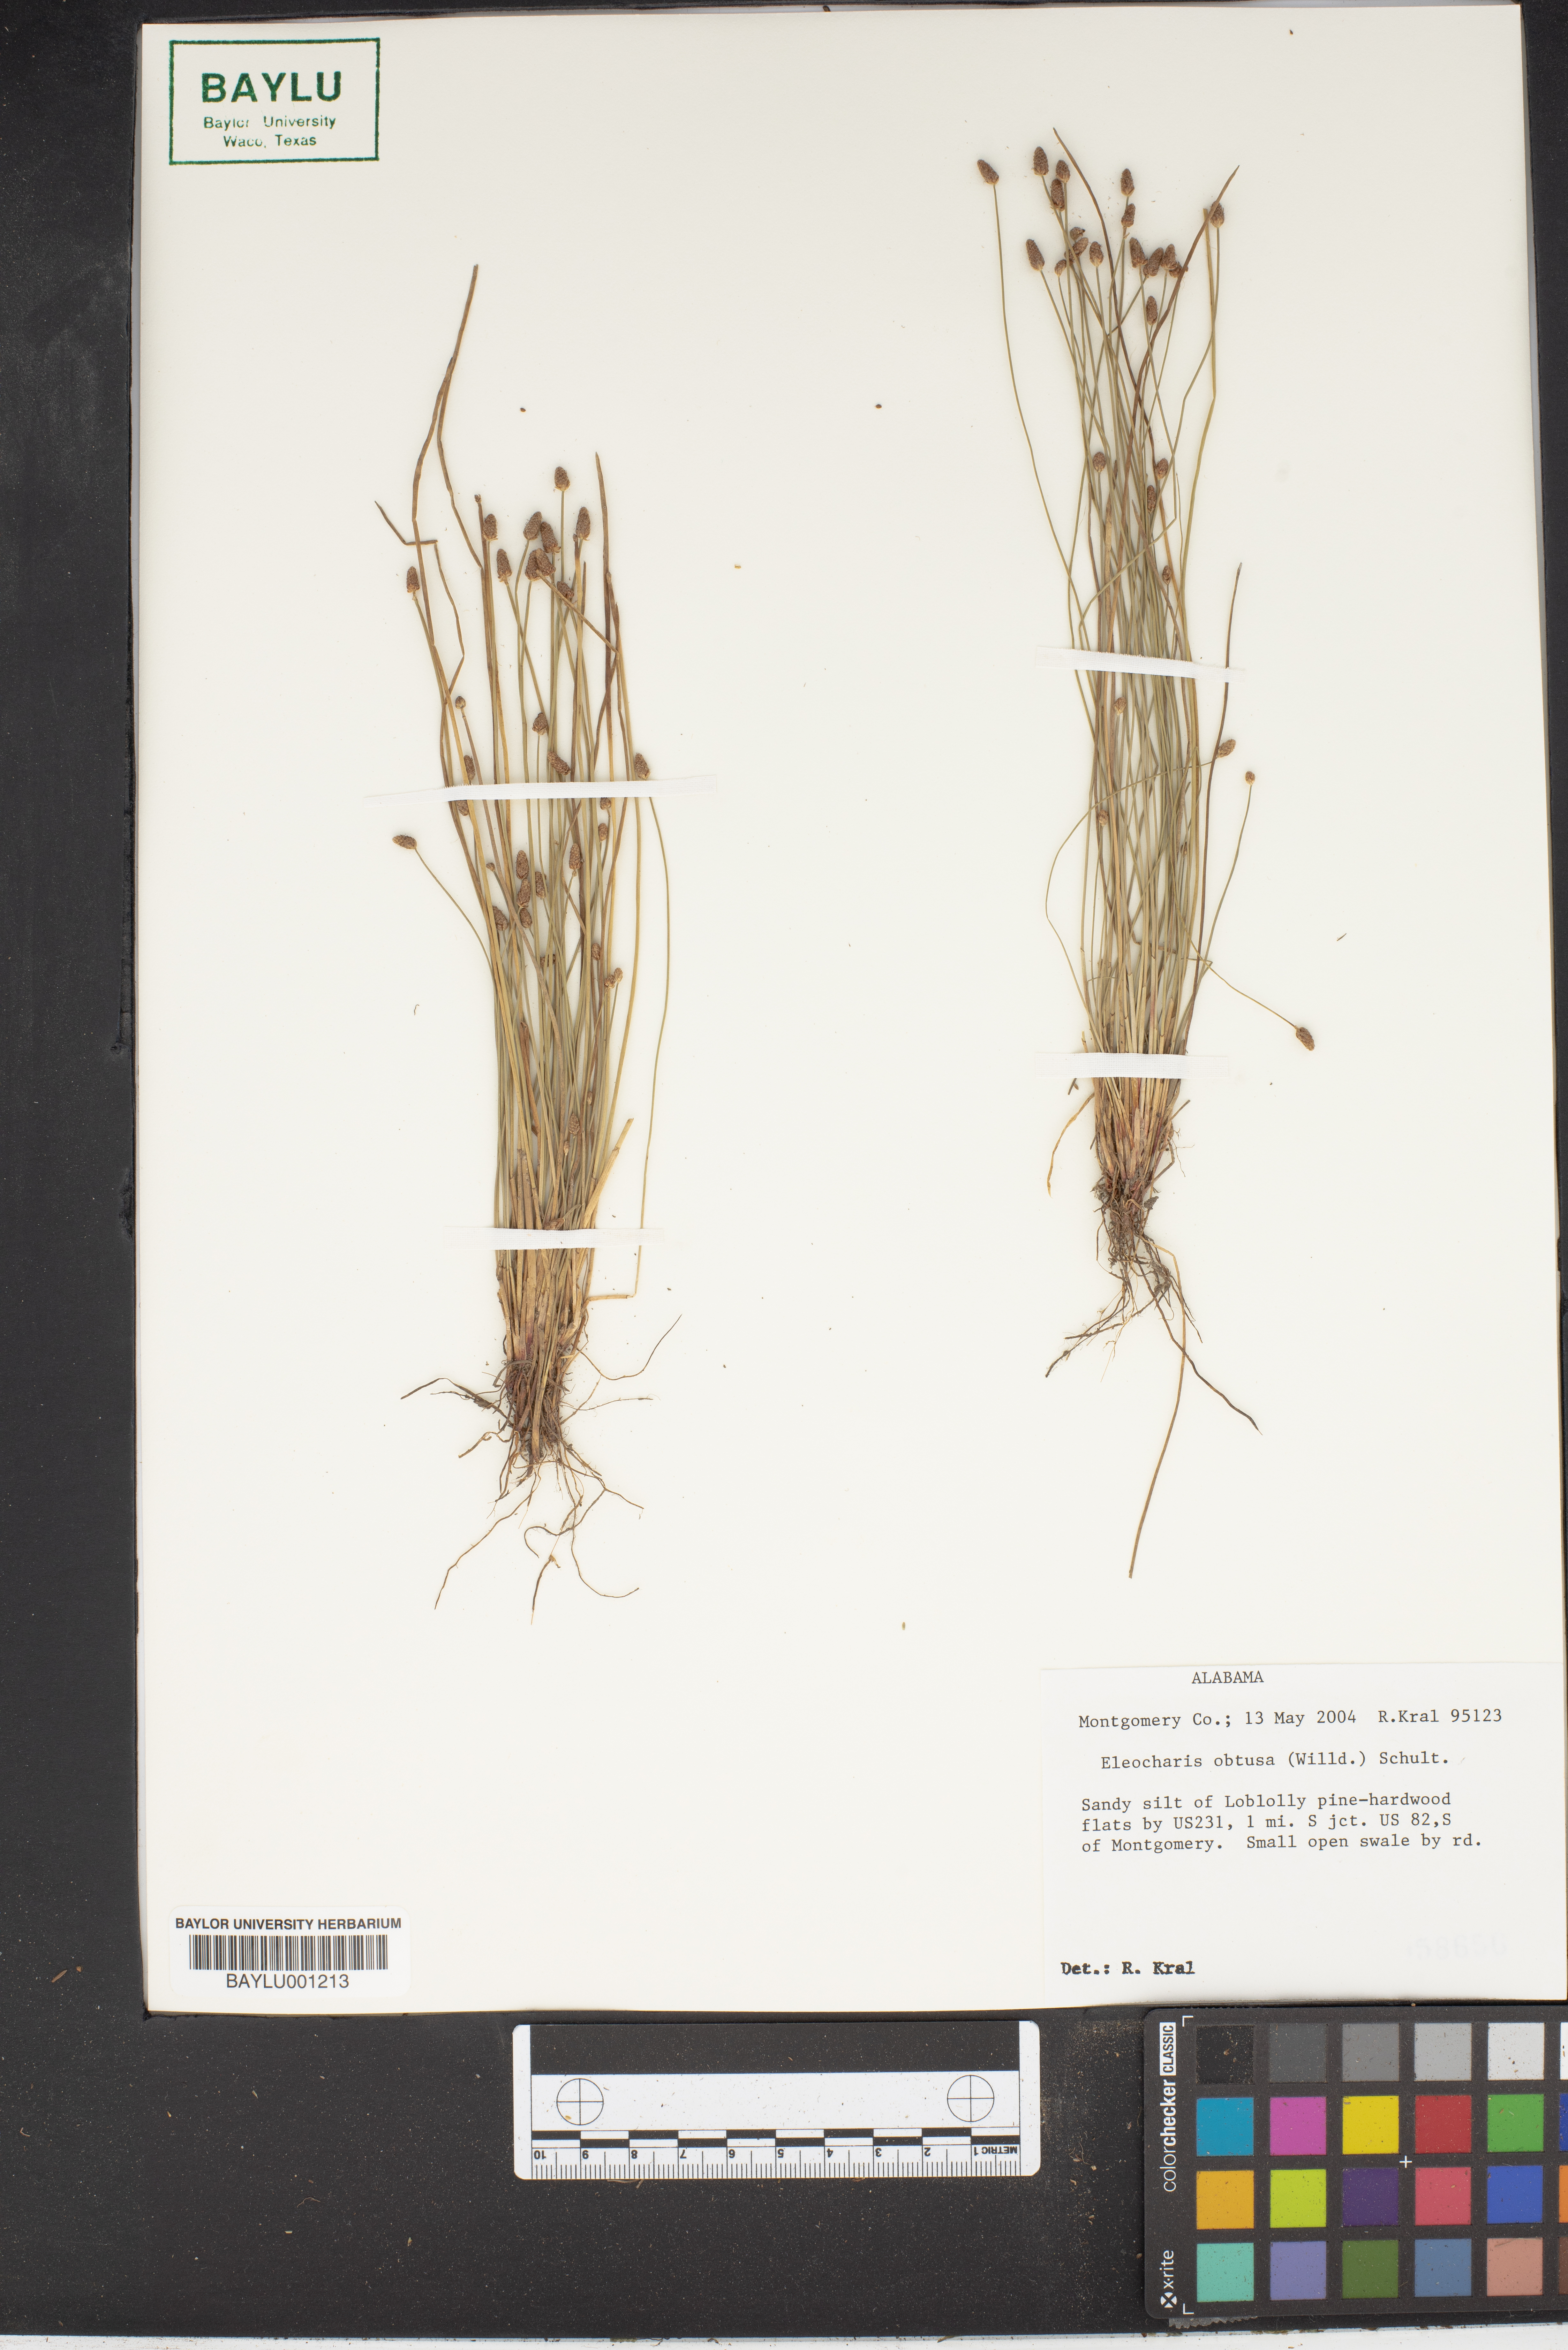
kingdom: Plantae
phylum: Tracheophyta
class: Liliopsida
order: Poales
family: Cyperaceae
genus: Eleocharis
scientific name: Eleocharis obtusa
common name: Blunt spikerush
